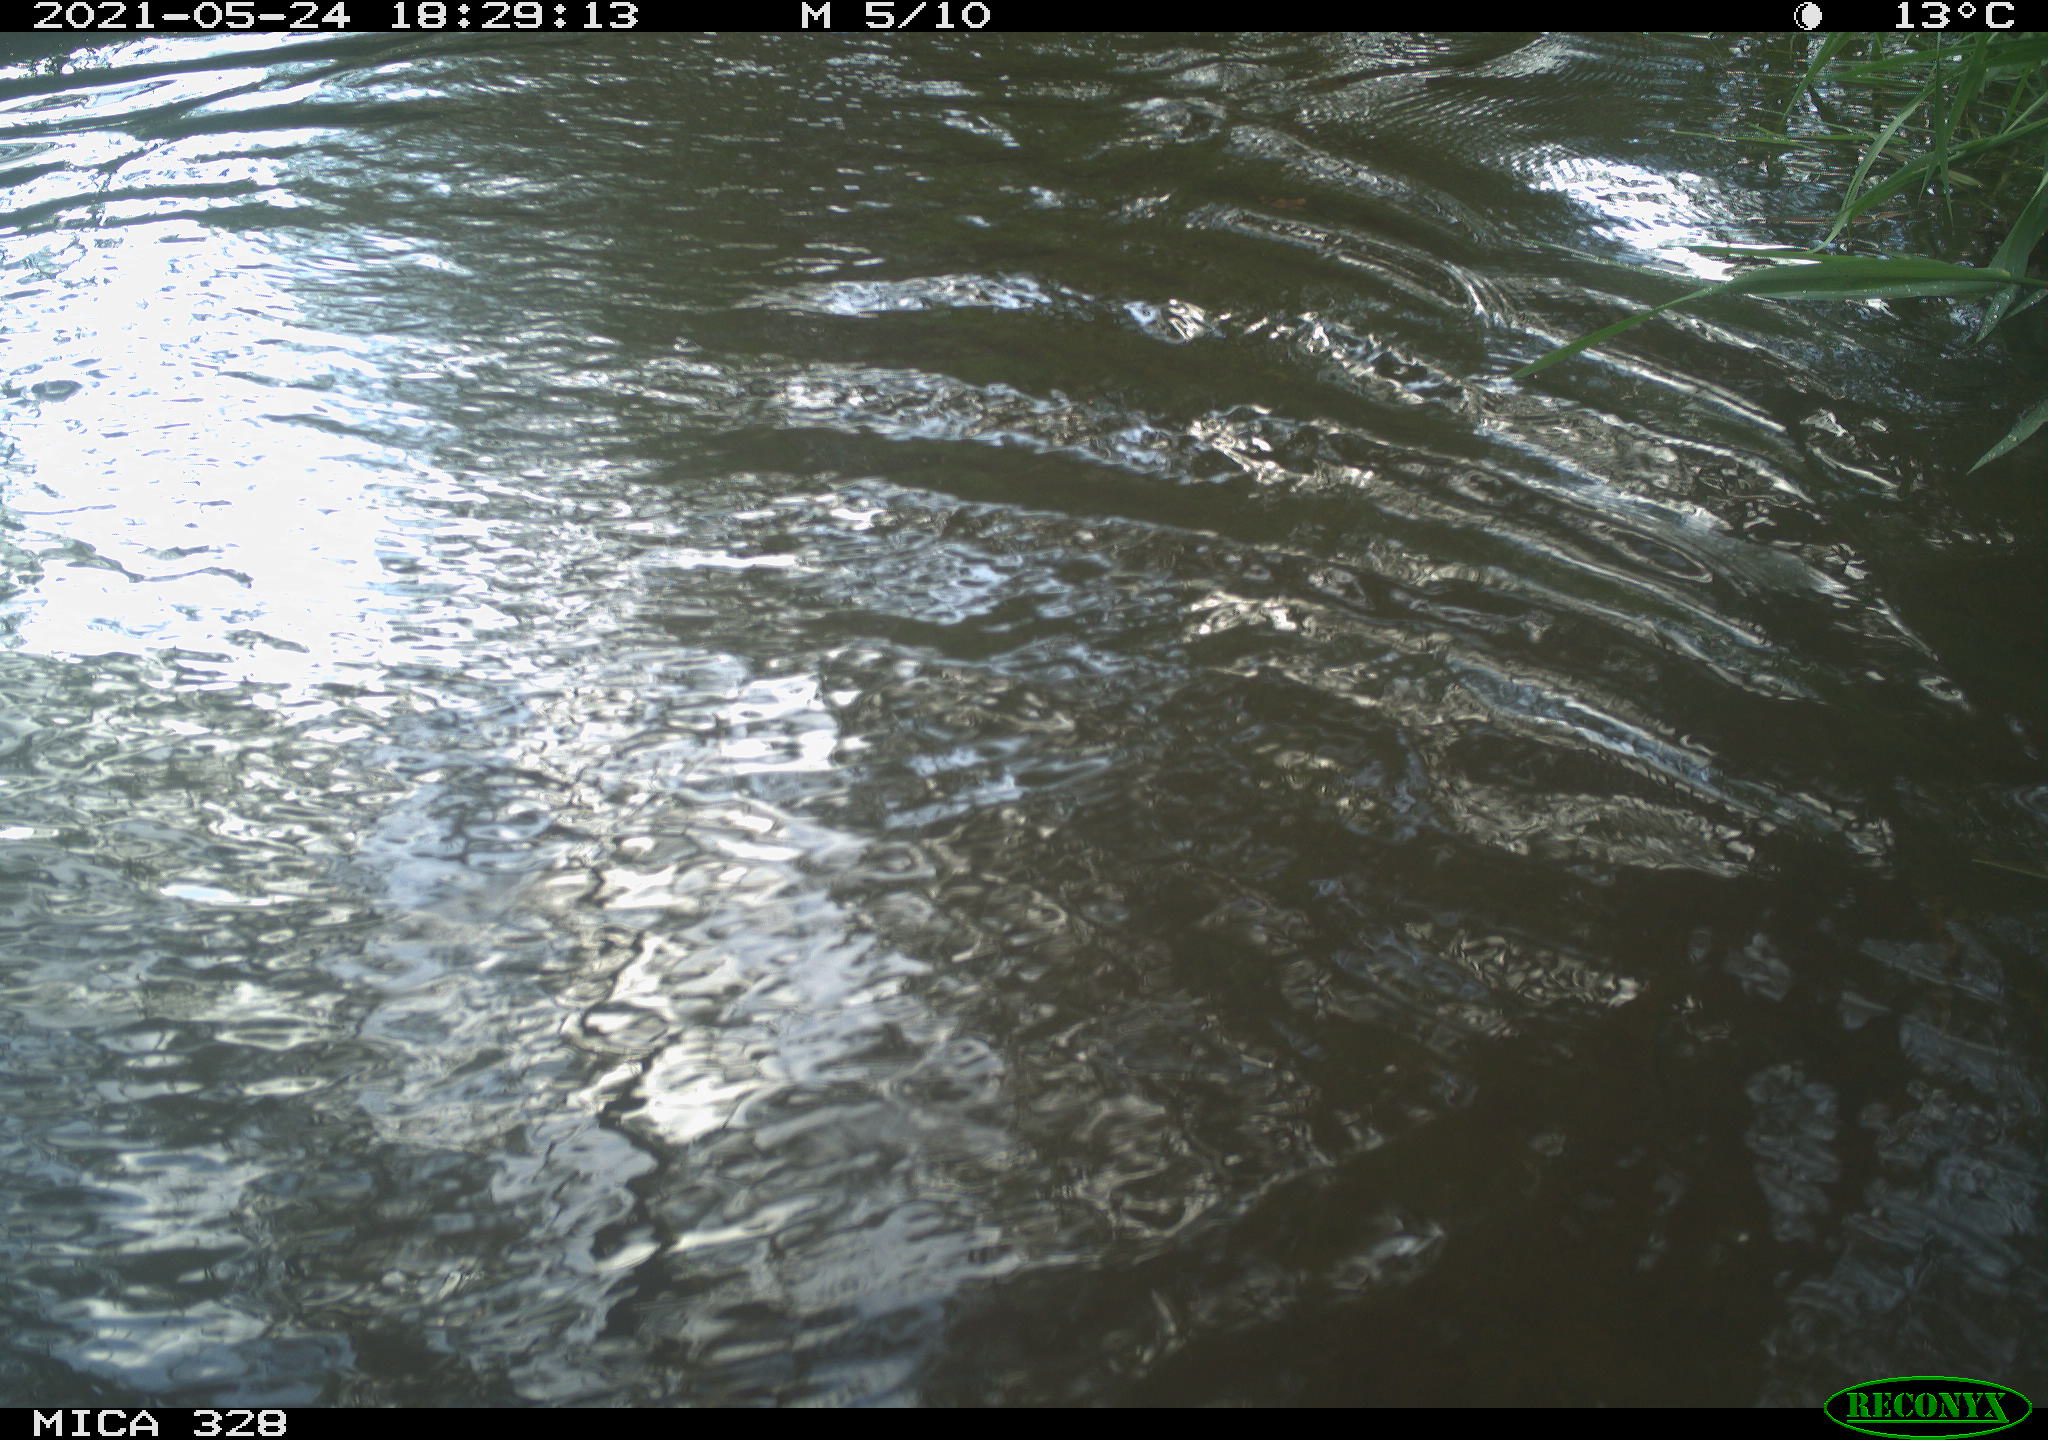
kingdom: Animalia
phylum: Chordata
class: Aves
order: Anseriformes
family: Anatidae
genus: Aix
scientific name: Aix galericulata
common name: Mandarin duck
